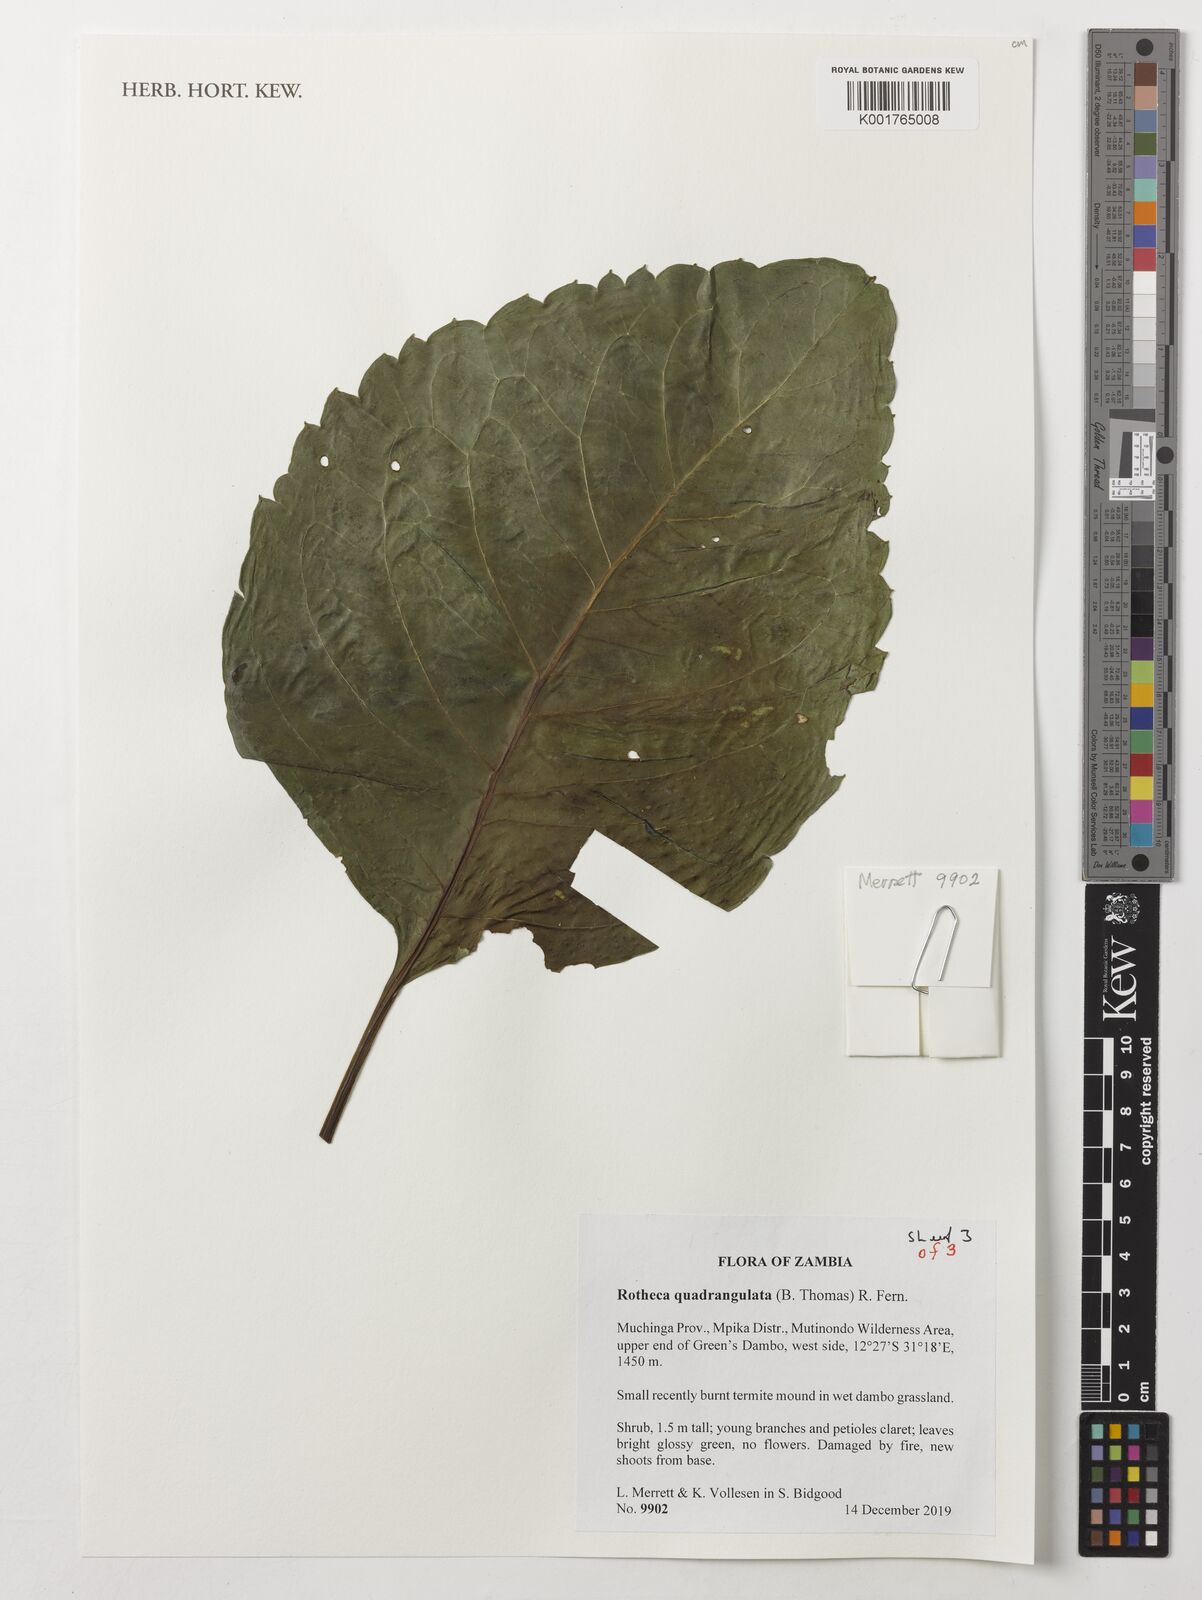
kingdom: Plantae
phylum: Tracheophyta
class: Magnoliopsida
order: Lamiales
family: Lamiaceae
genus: Rotheca
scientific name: Rotheca quadrangulata
